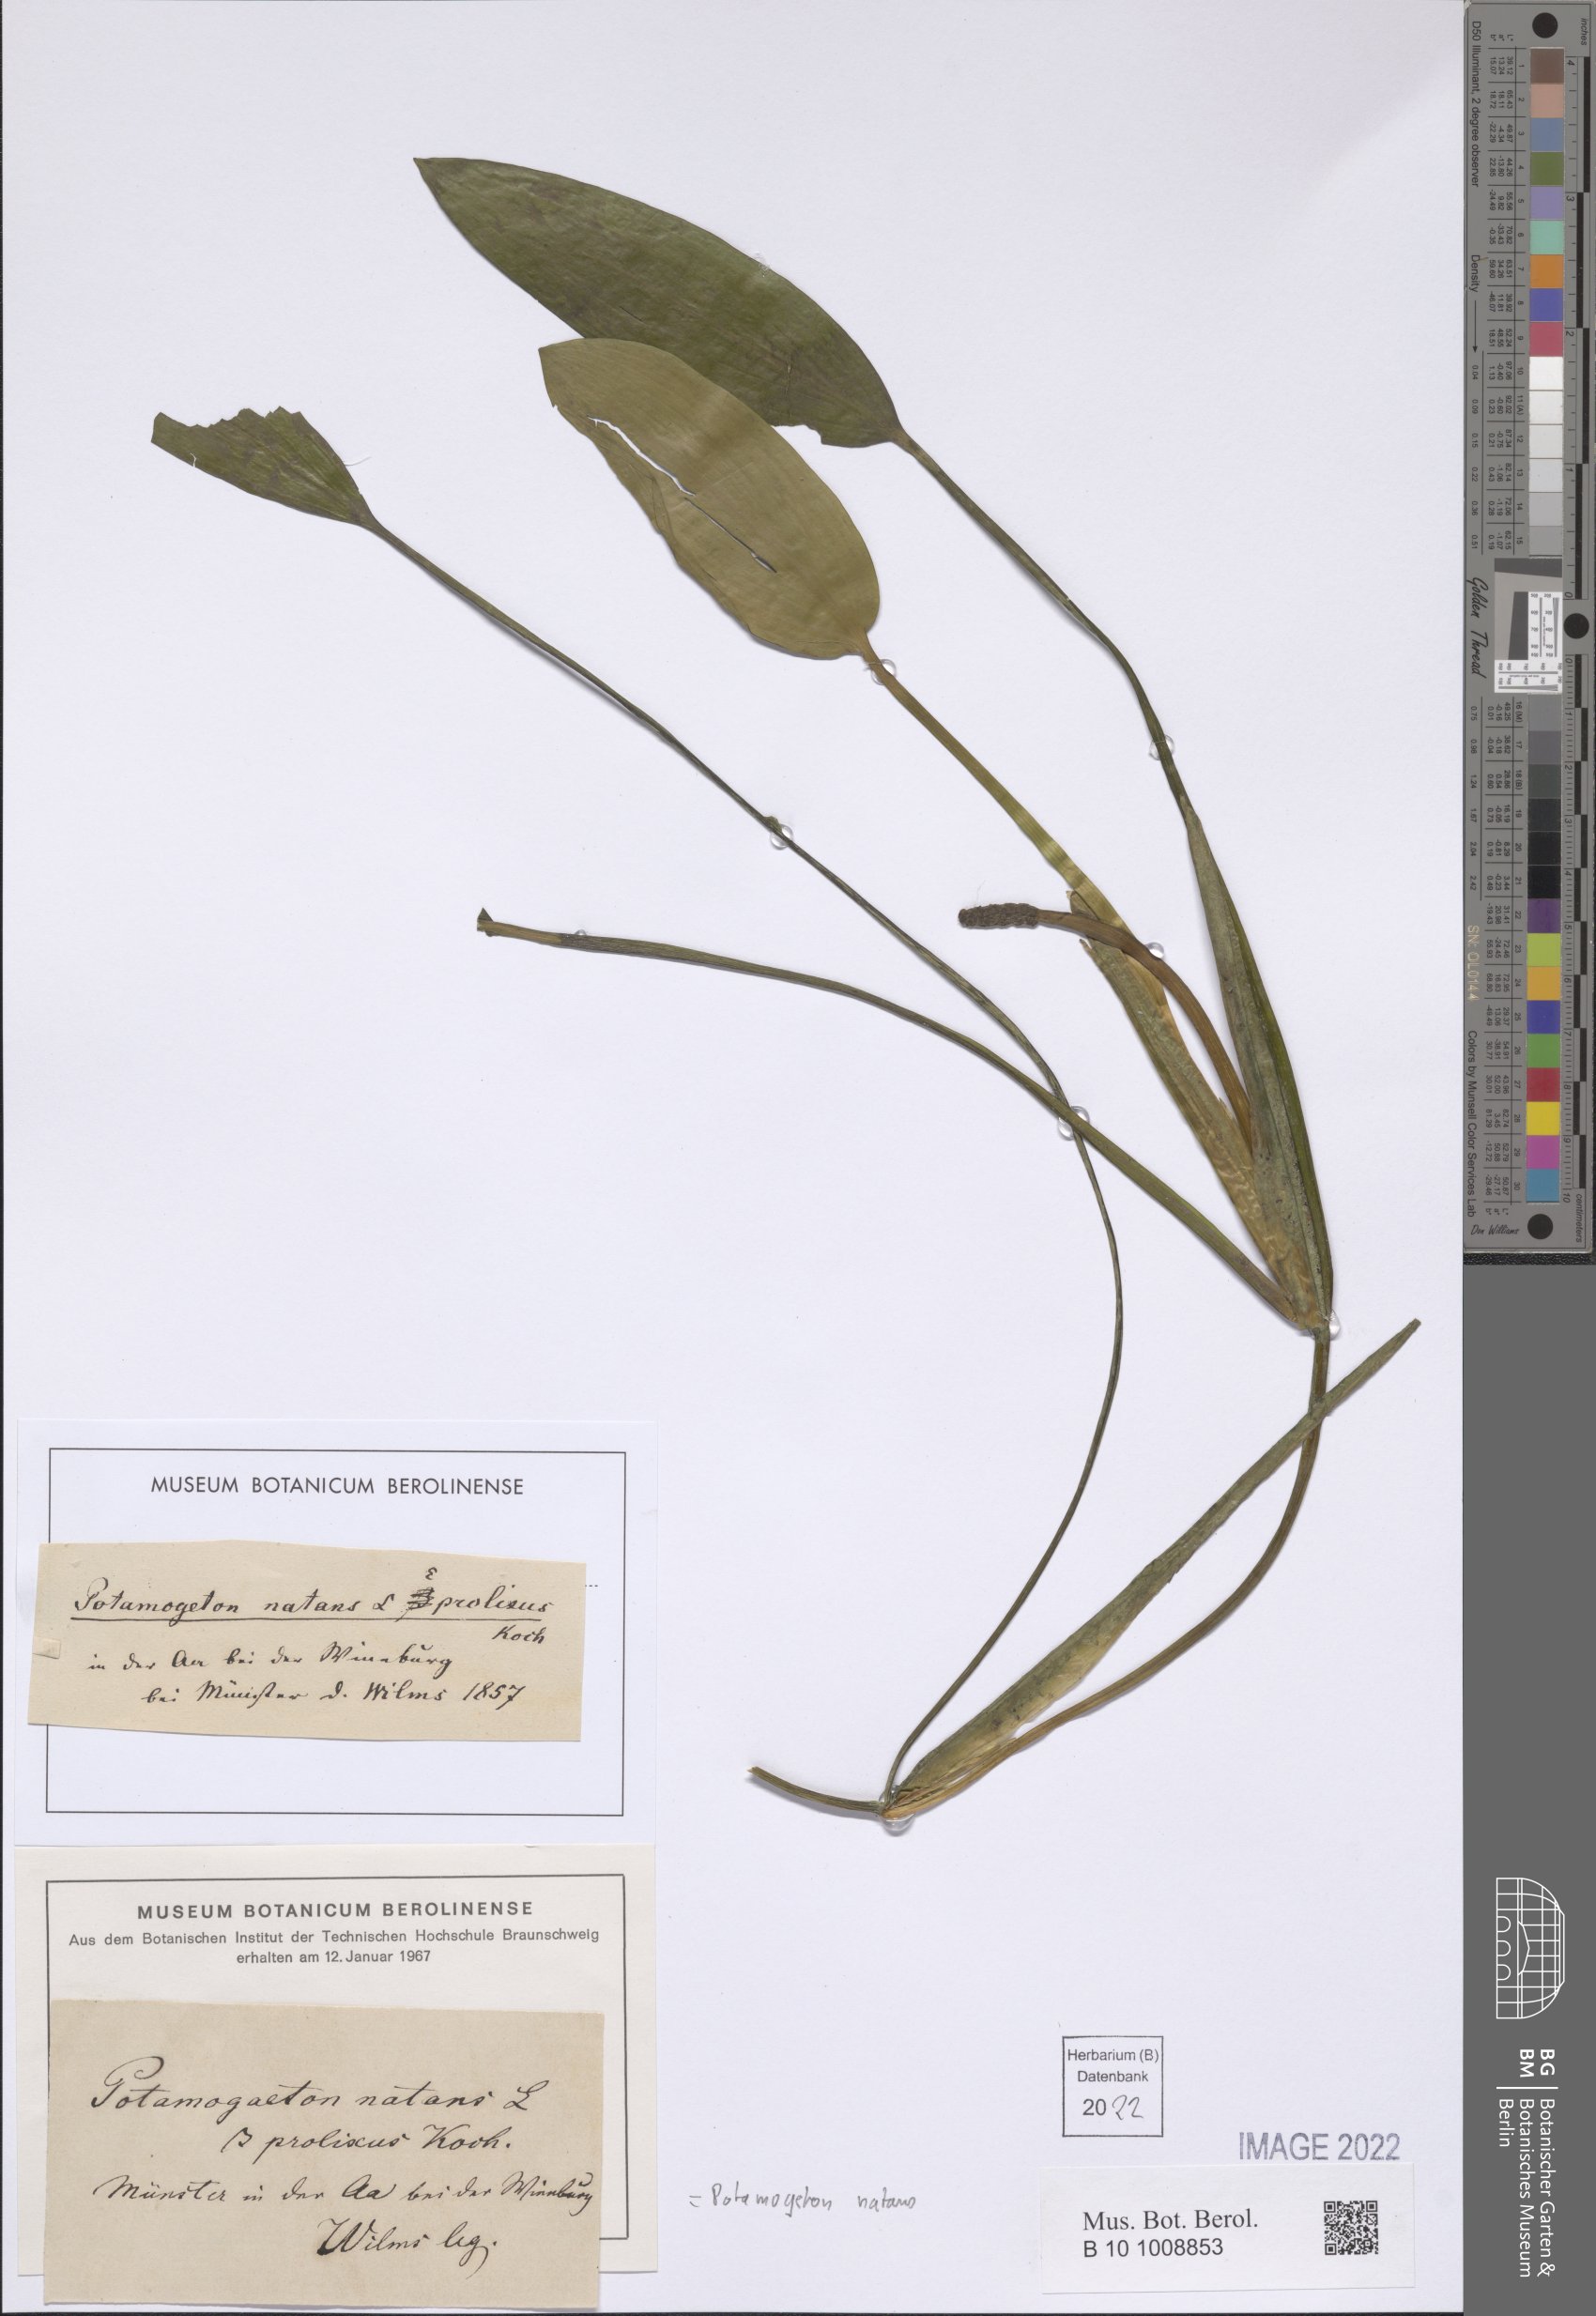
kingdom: Plantae
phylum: Tracheophyta
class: Liliopsida
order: Alismatales
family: Potamogetonaceae
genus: Potamogeton
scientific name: Potamogeton natans
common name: Broad-leaved pondweed
